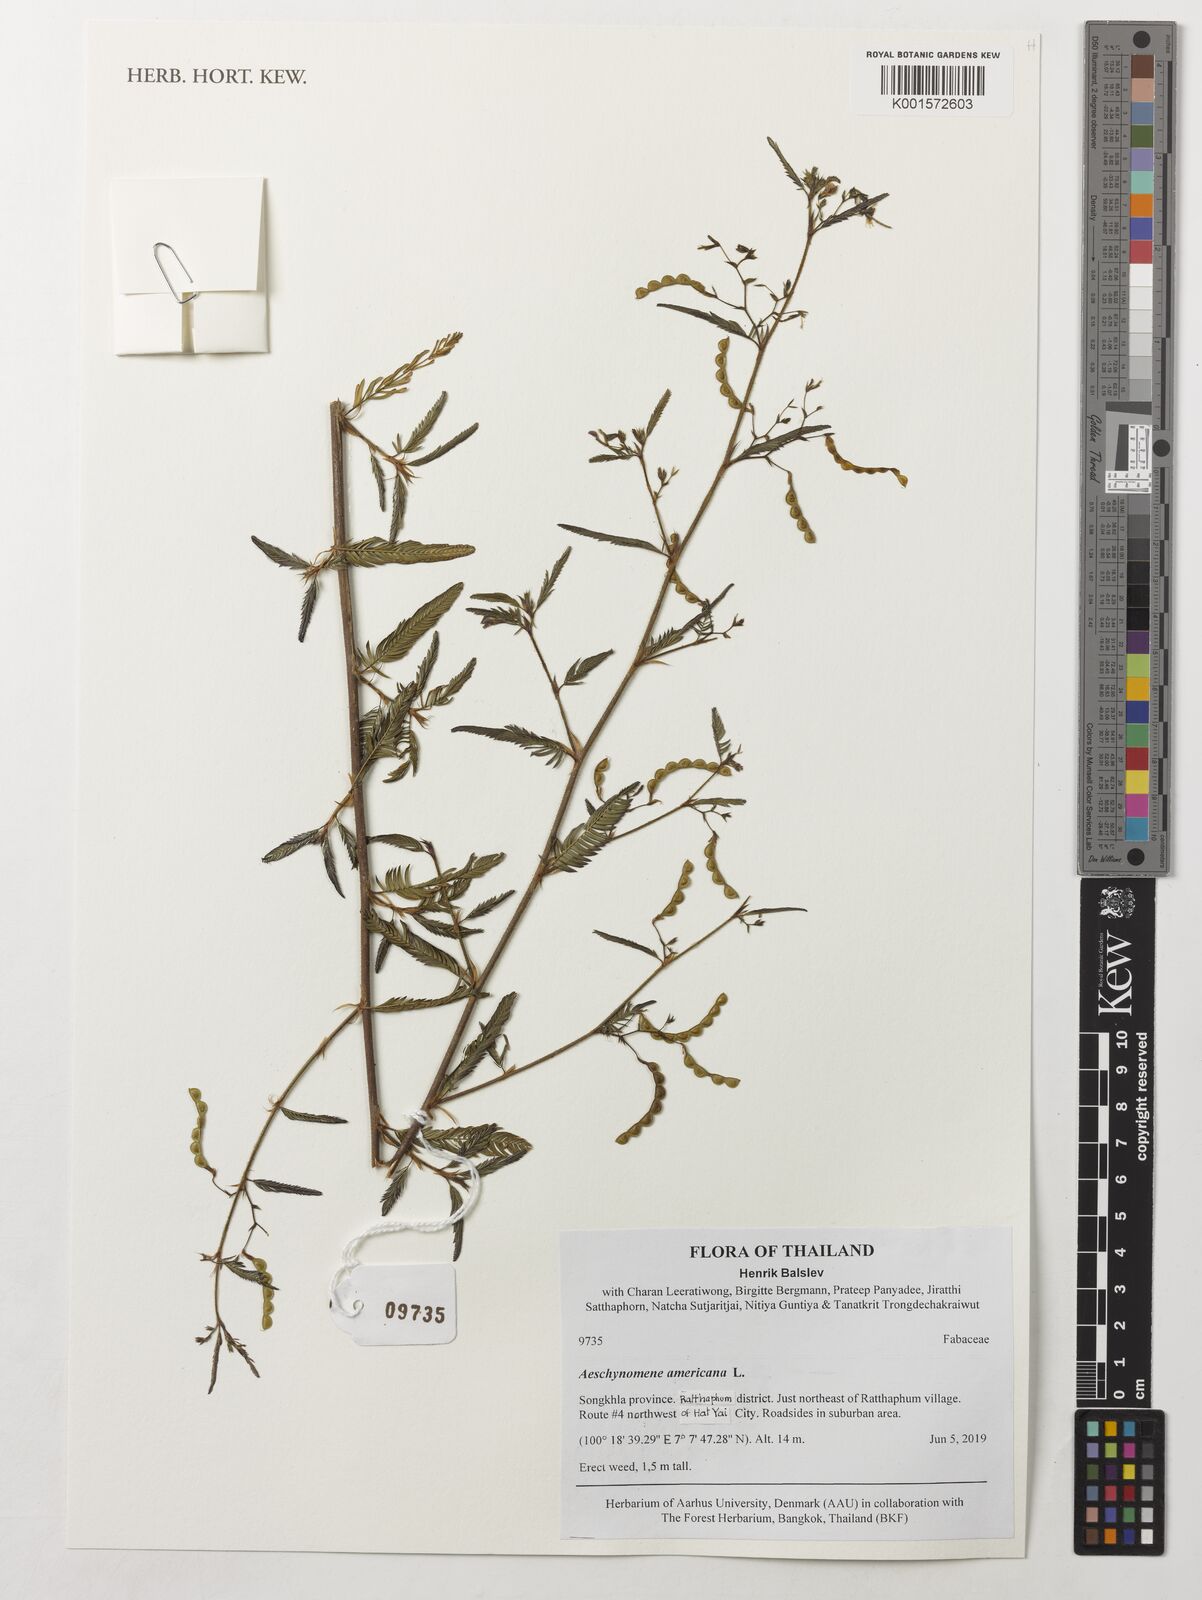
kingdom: Plantae
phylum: Tracheophyta
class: Magnoliopsida
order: Fabales
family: Fabaceae
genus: Aeschynomene
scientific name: Aeschynomene americana
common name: Joint-vetch
